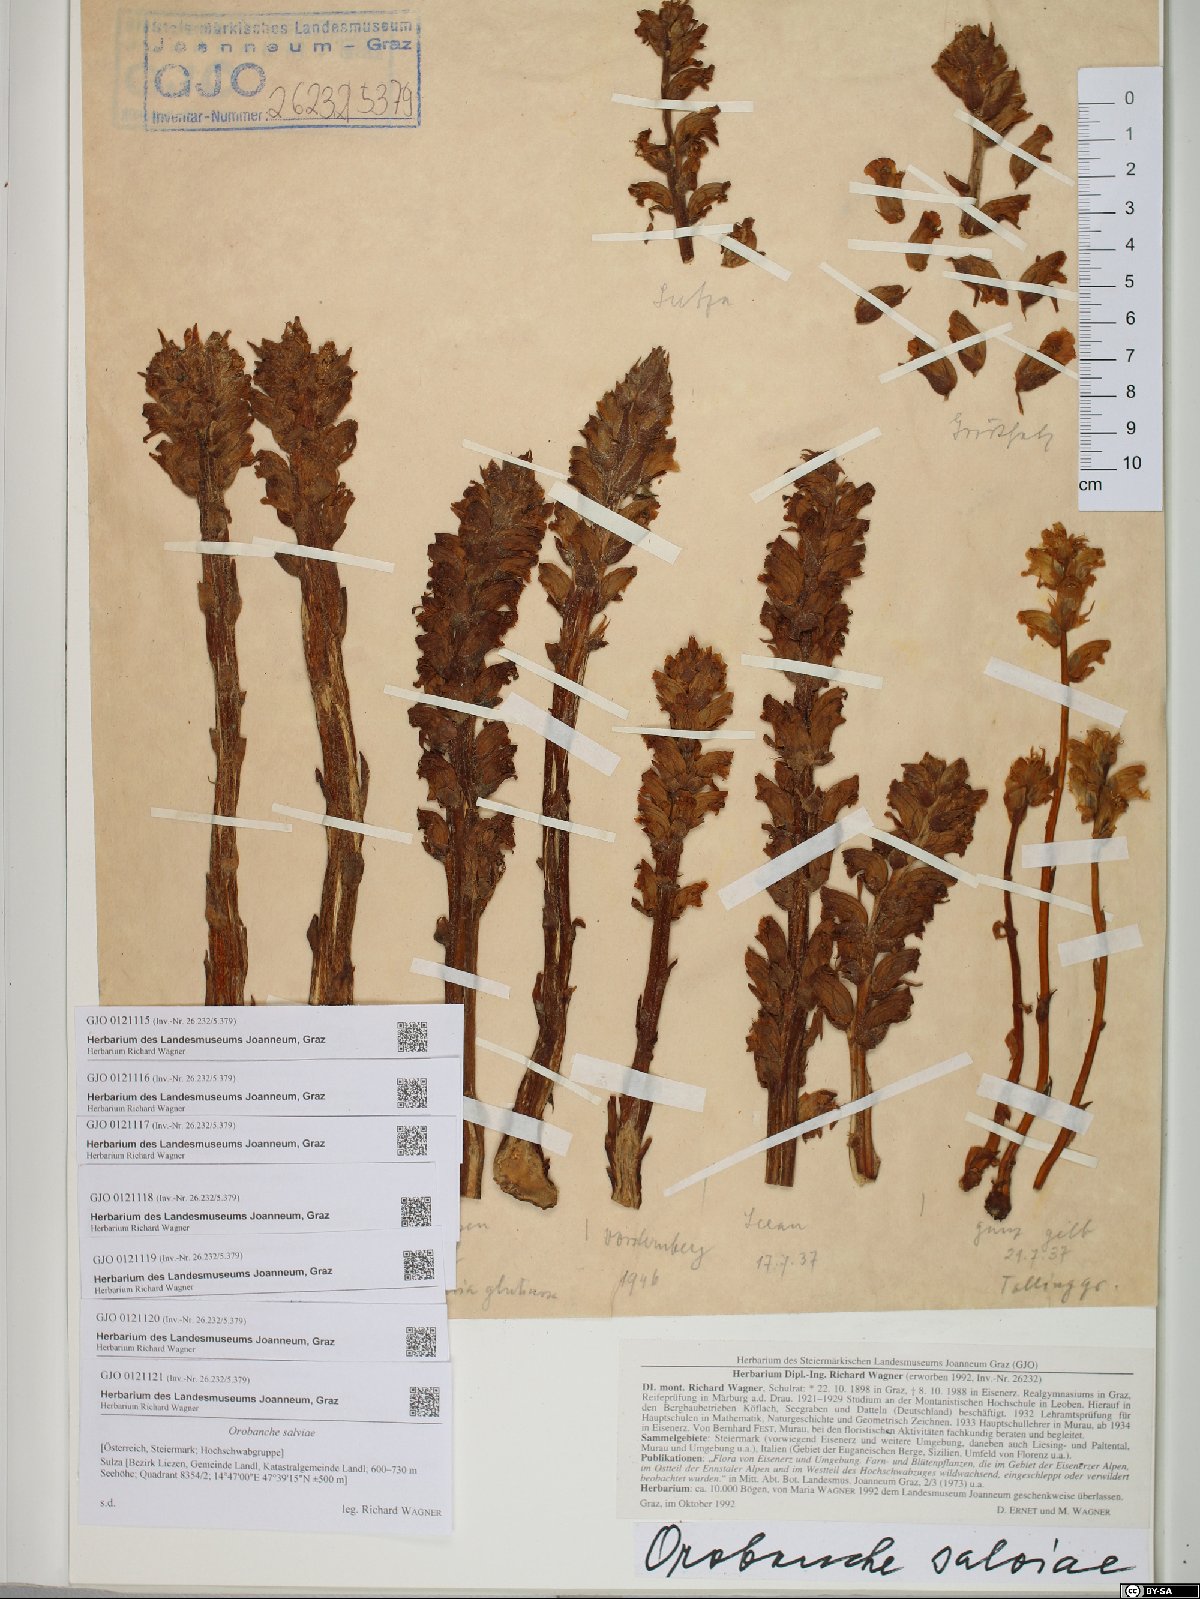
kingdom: Plantae
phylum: Tracheophyta
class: Magnoliopsida
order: Lamiales
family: Orobanchaceae
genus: Orobanche
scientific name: Orobanche salviae
